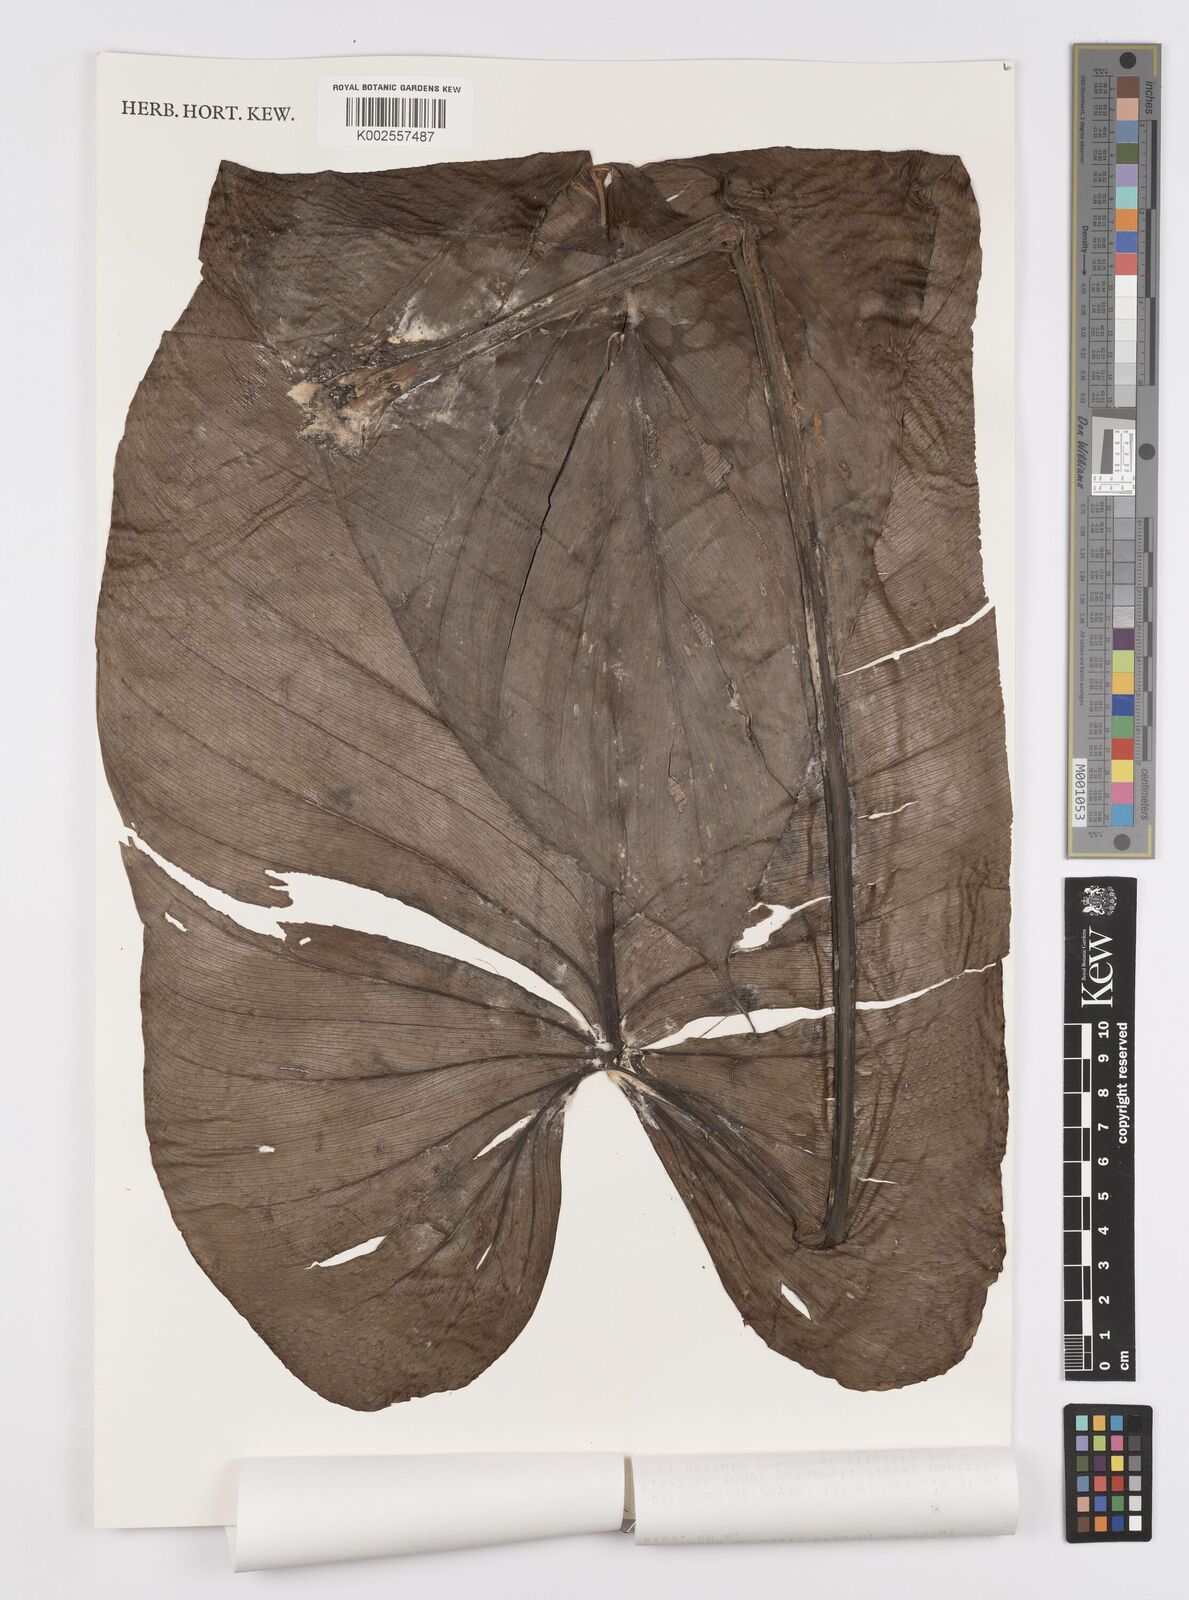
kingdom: Plantae
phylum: Tracheophyta
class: Liliopsida
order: Alismatales
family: Araceae
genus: Philodendron
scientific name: Philodendron jodavisianum
